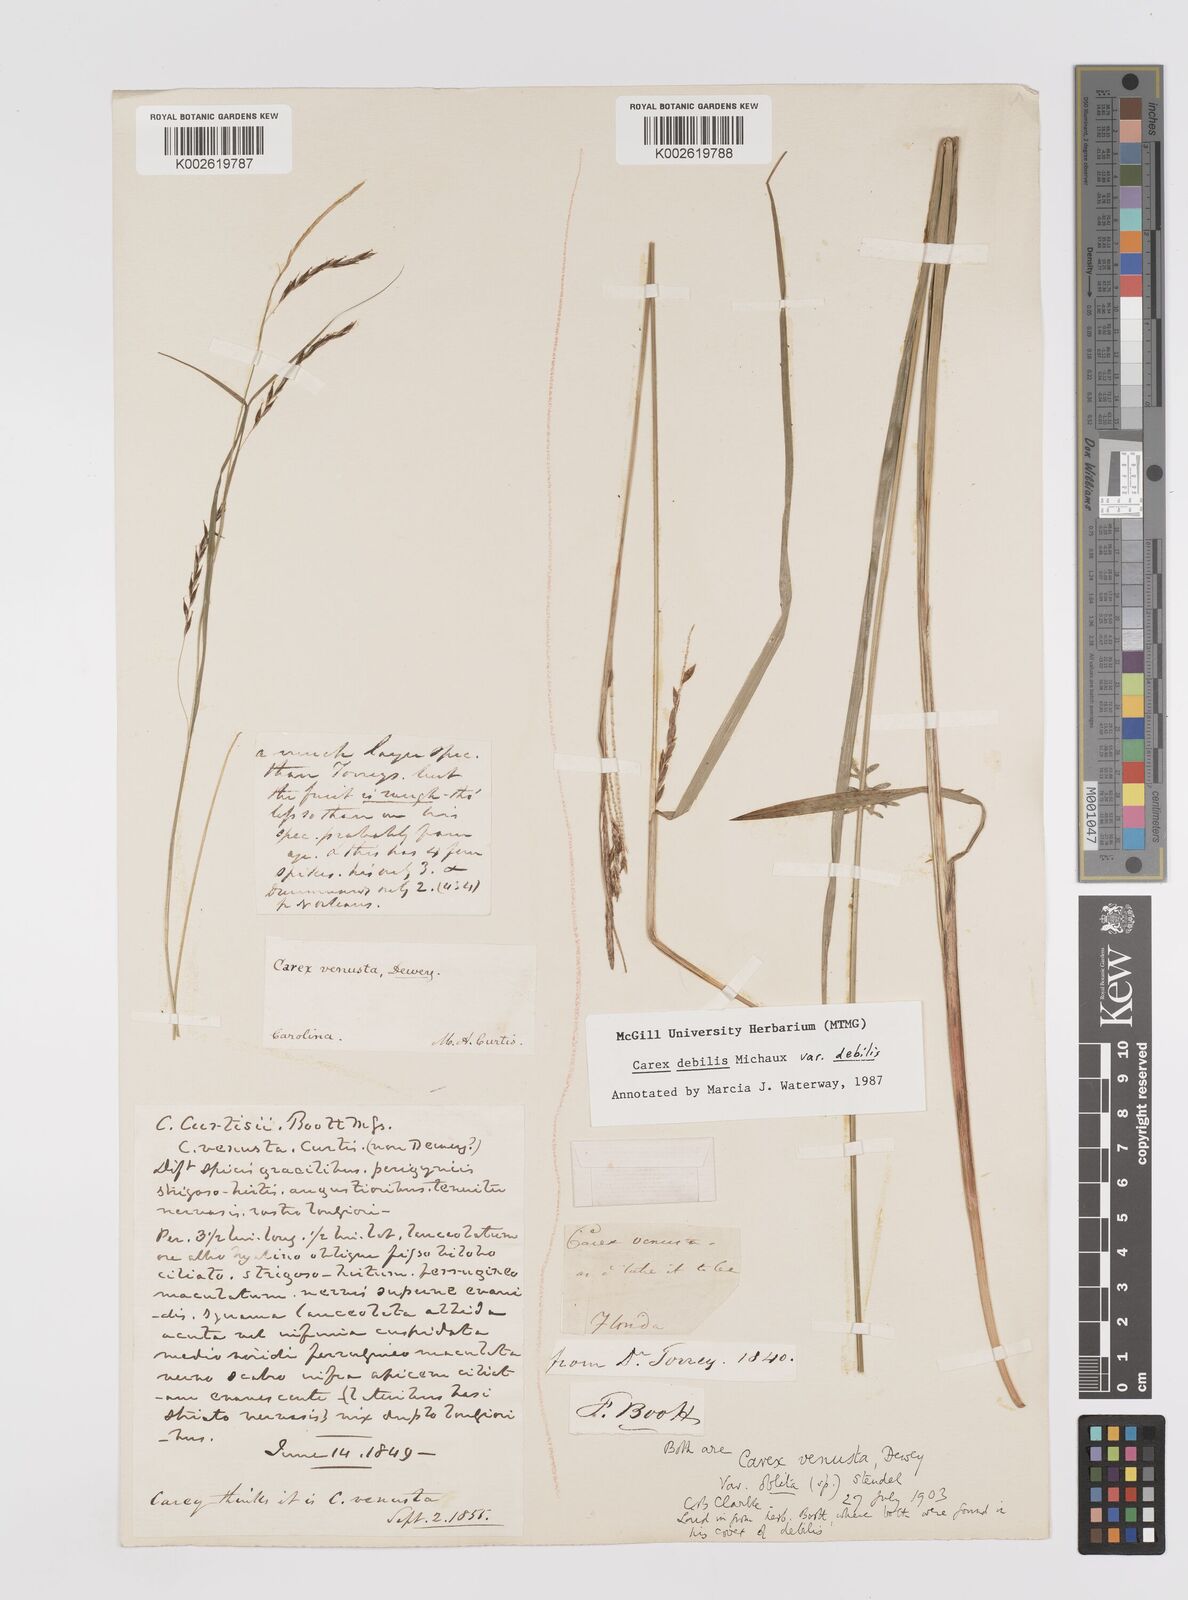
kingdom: Plantae
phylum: Tracheophyta
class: Liliopsida
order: Poales
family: Cyperaceae
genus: Carex
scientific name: Carex debilis
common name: White-edge sedge
